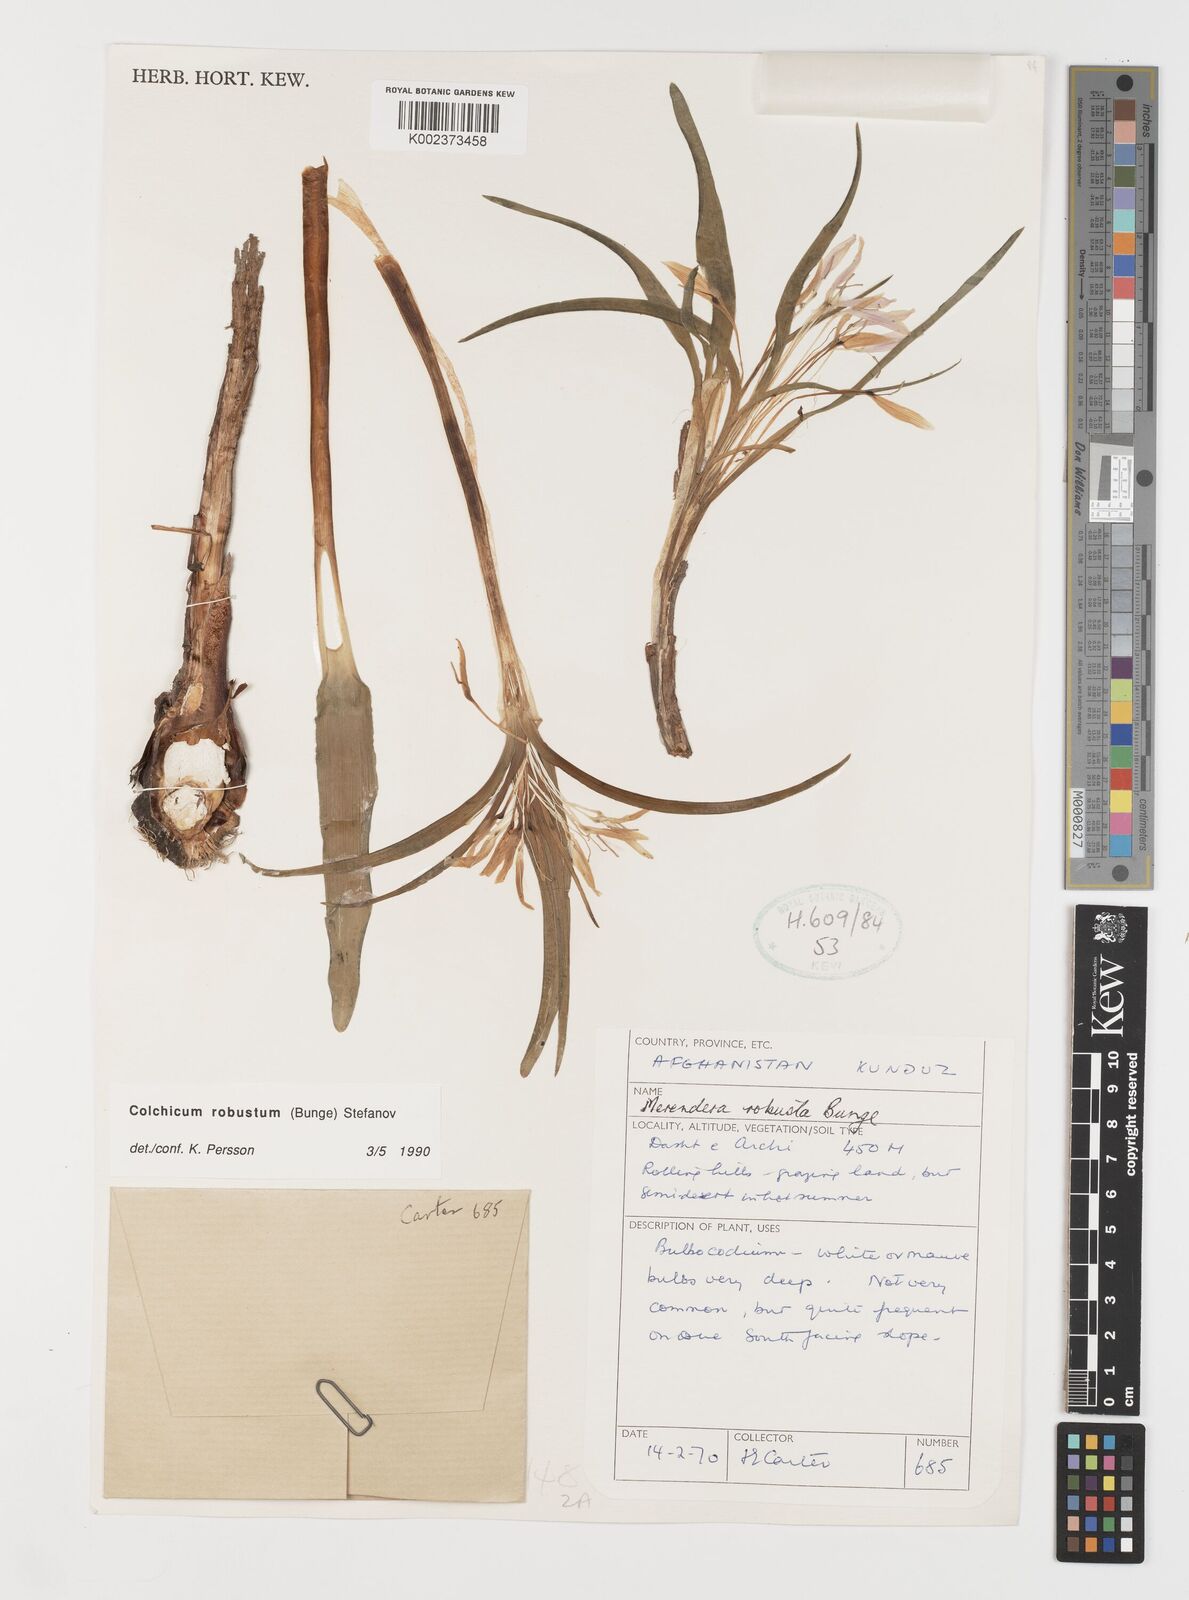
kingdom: Plantae
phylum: Tracheophyta
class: Liliopsida
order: Liliales
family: Colchicaceae
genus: Colchicum
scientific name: Colchicum robustum
